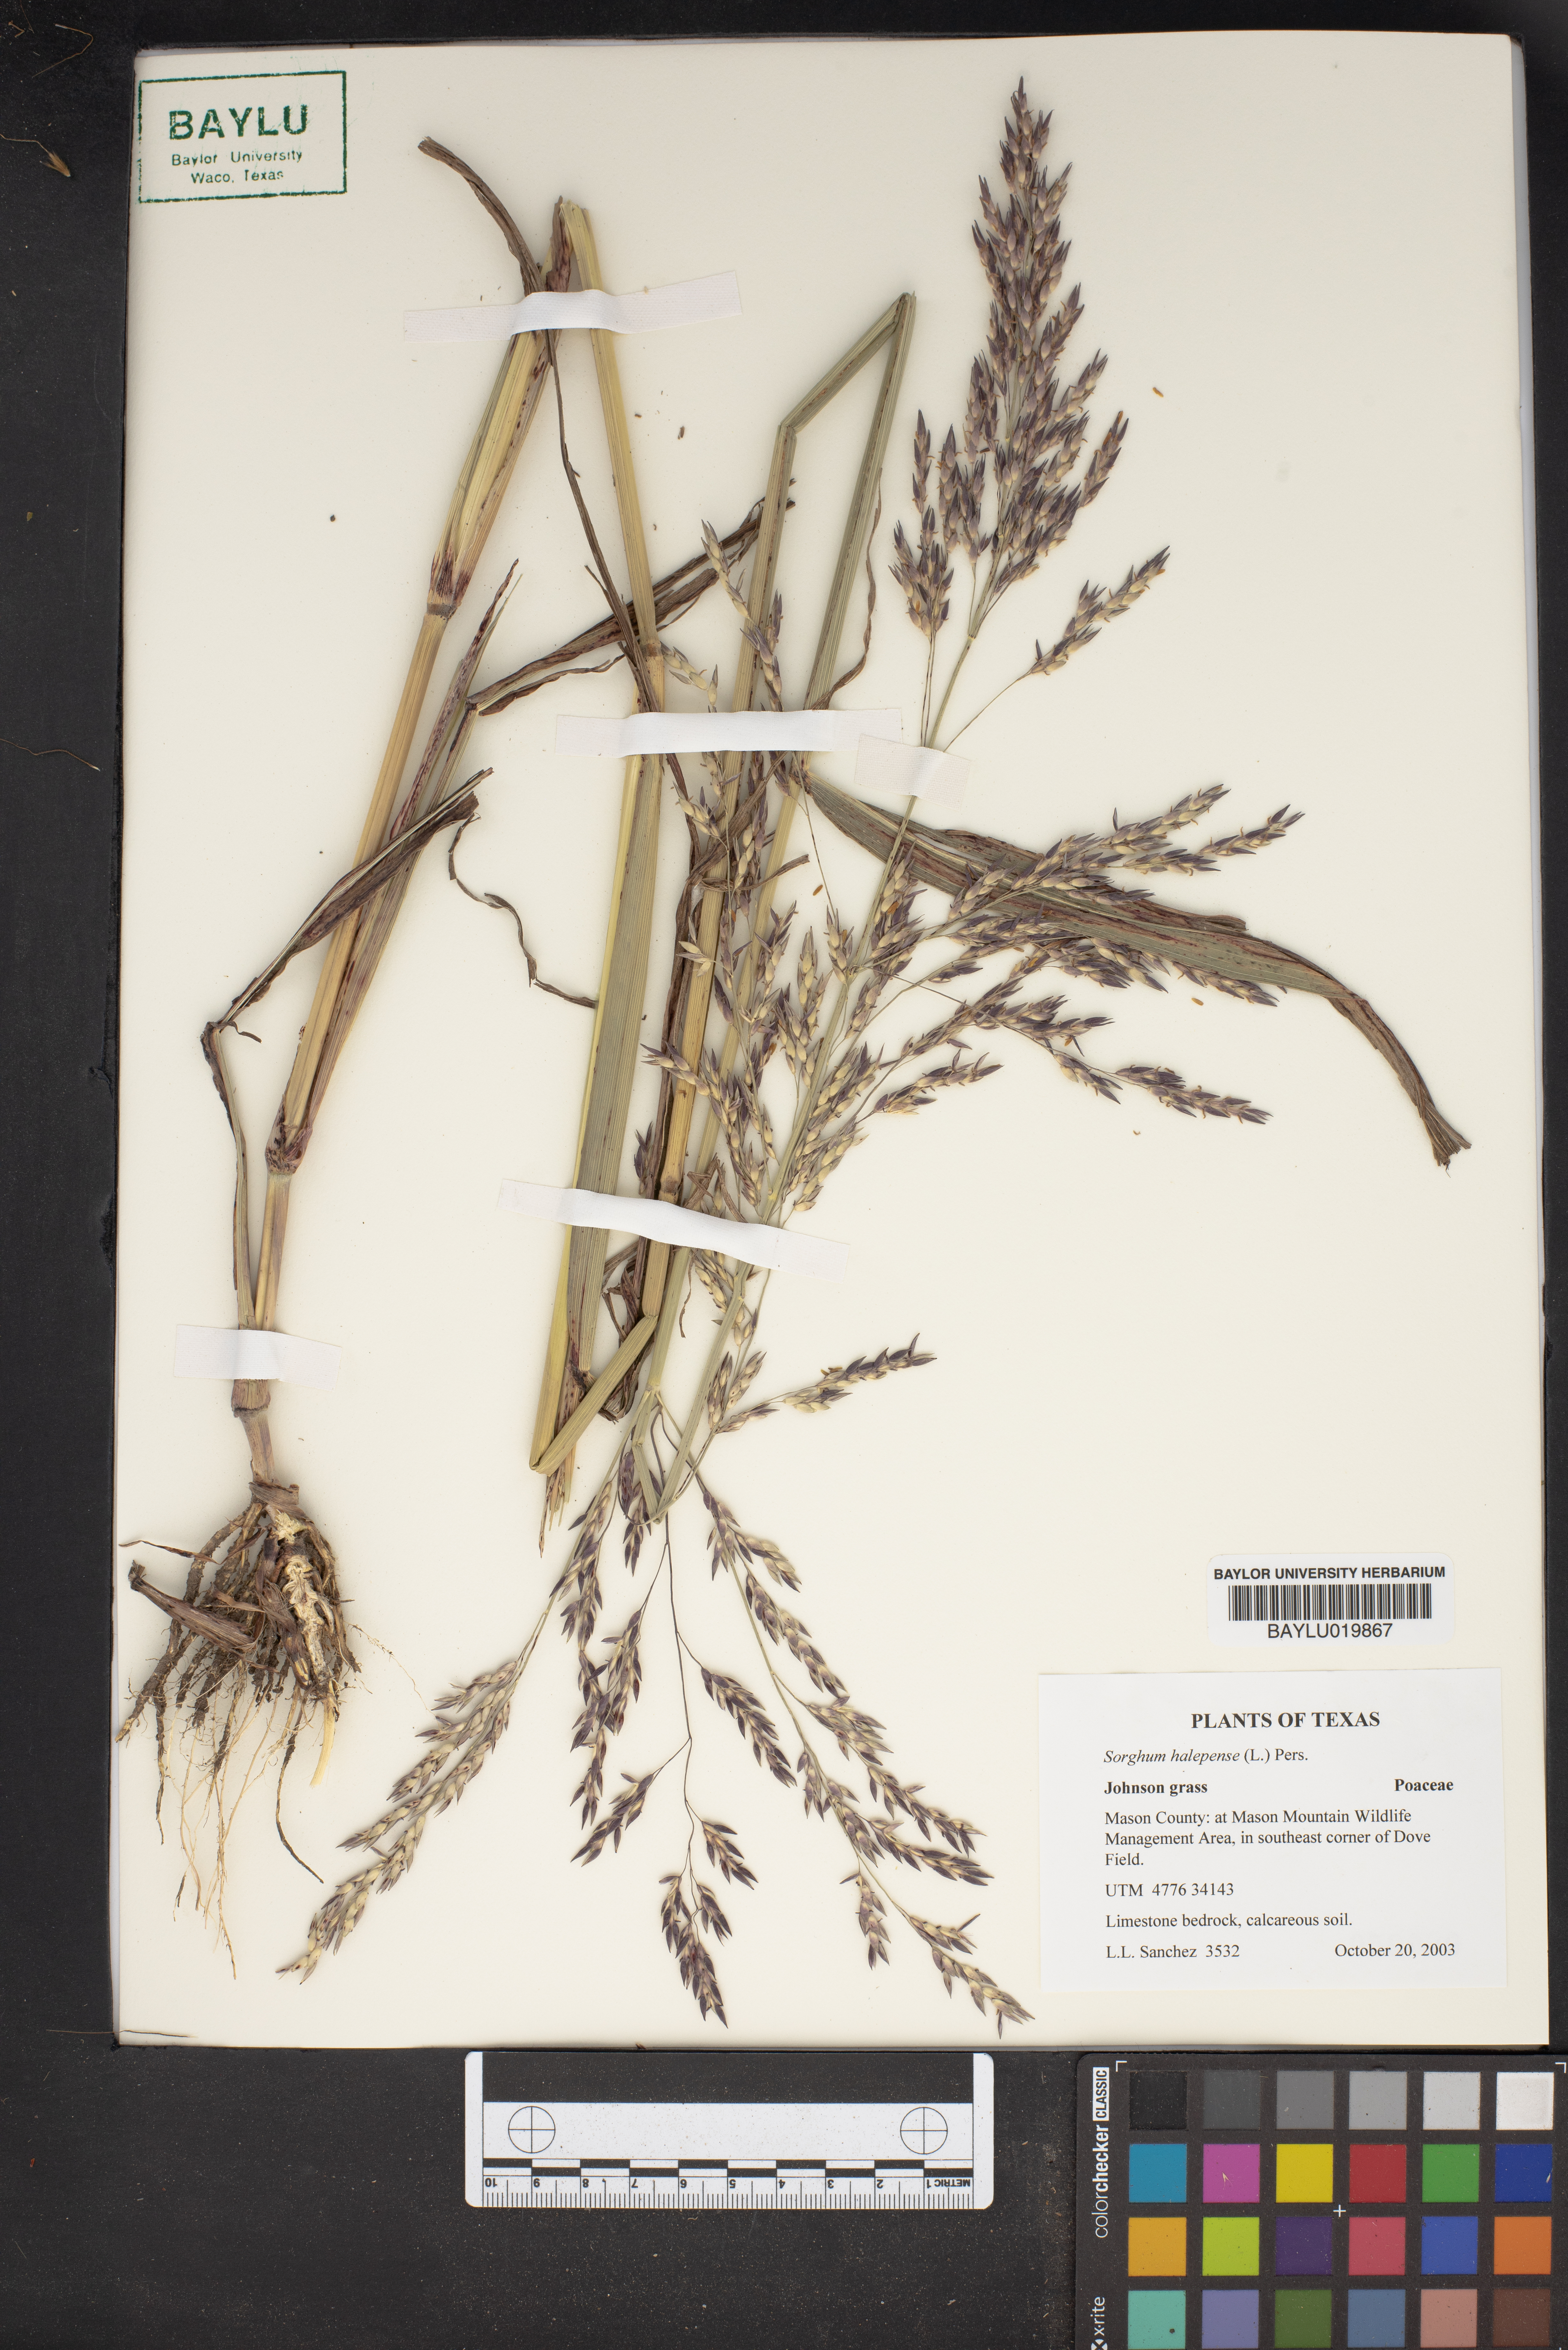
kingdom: Plantae
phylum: Tracheophyta
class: Liliopsida
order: Poales
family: Poaceae
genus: Sorghum
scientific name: Sorghum halepense
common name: Johnson-grass
